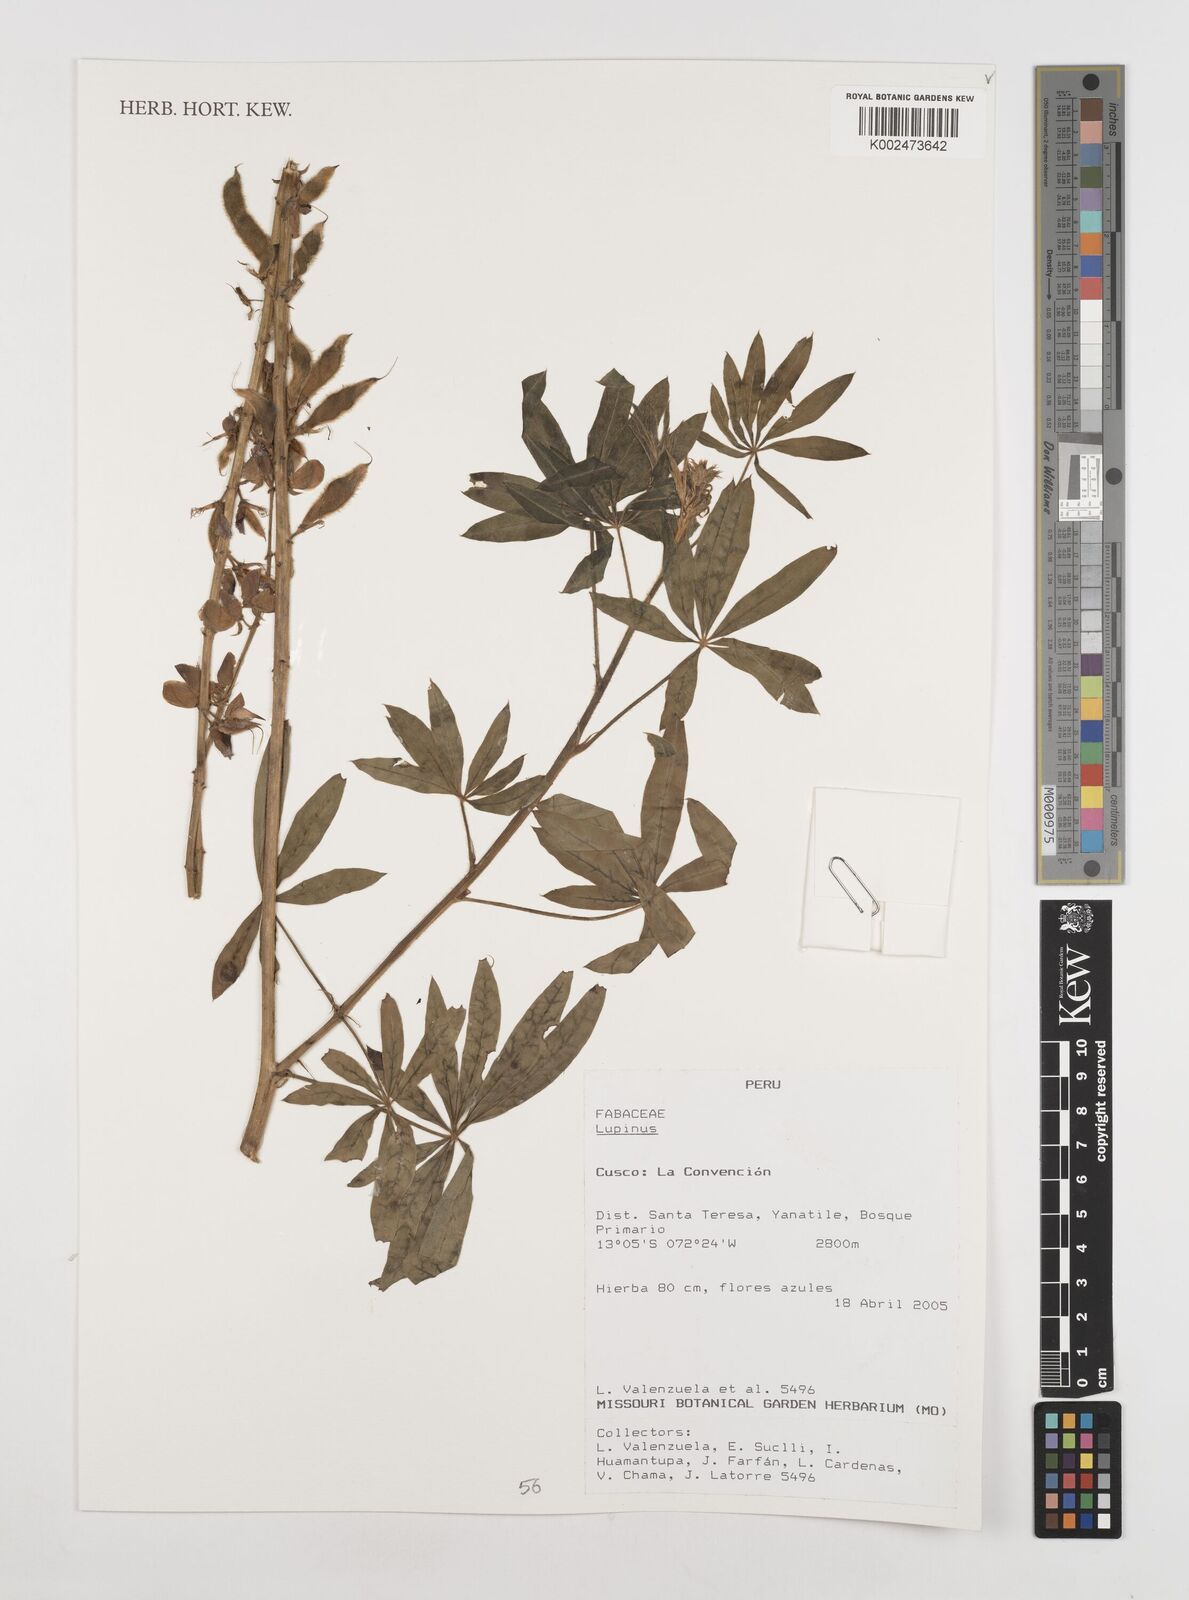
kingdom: Plantae
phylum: Tracheophyta
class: Magnoliopsida
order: Fabales
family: Fabaceae
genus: Lupinus
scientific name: Lupinus
